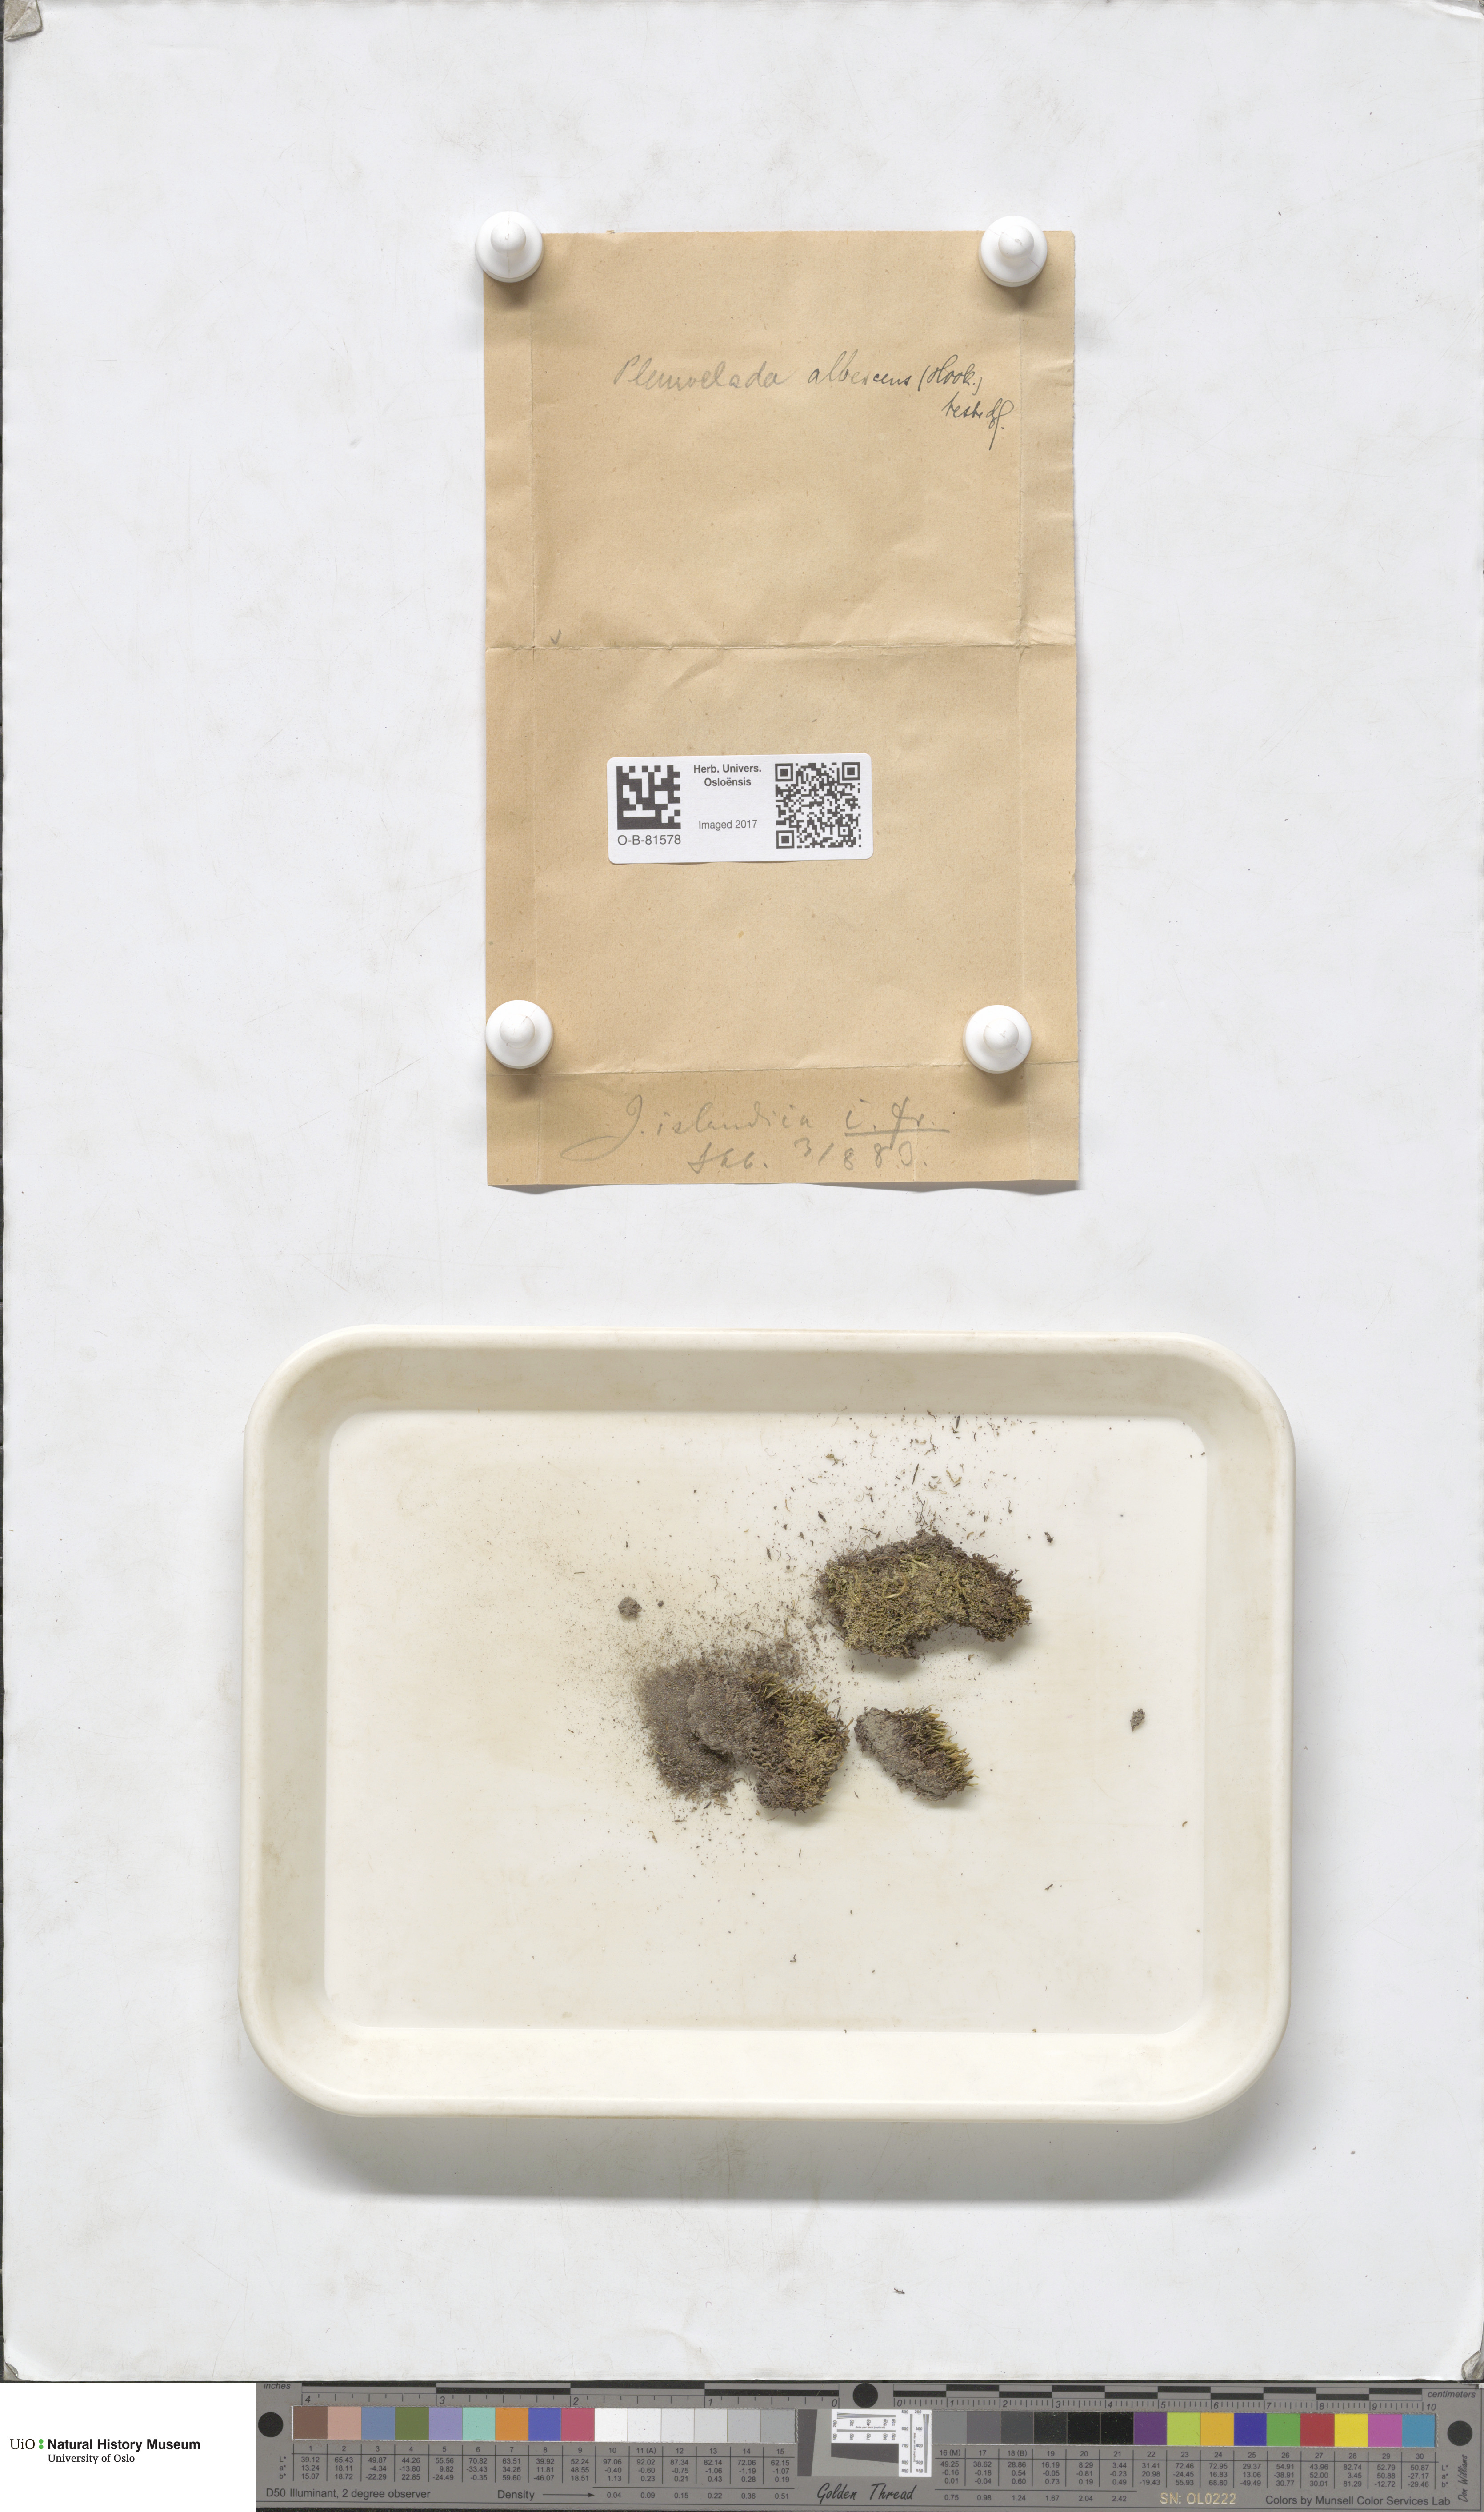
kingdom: Plantae
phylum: Marchantiophyta
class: Jungermanniopsida
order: Jungermanniales
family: Cephaloziaceae
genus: Fuscocephaloziopsis
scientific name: Fuscocephaloziopsis albescens
